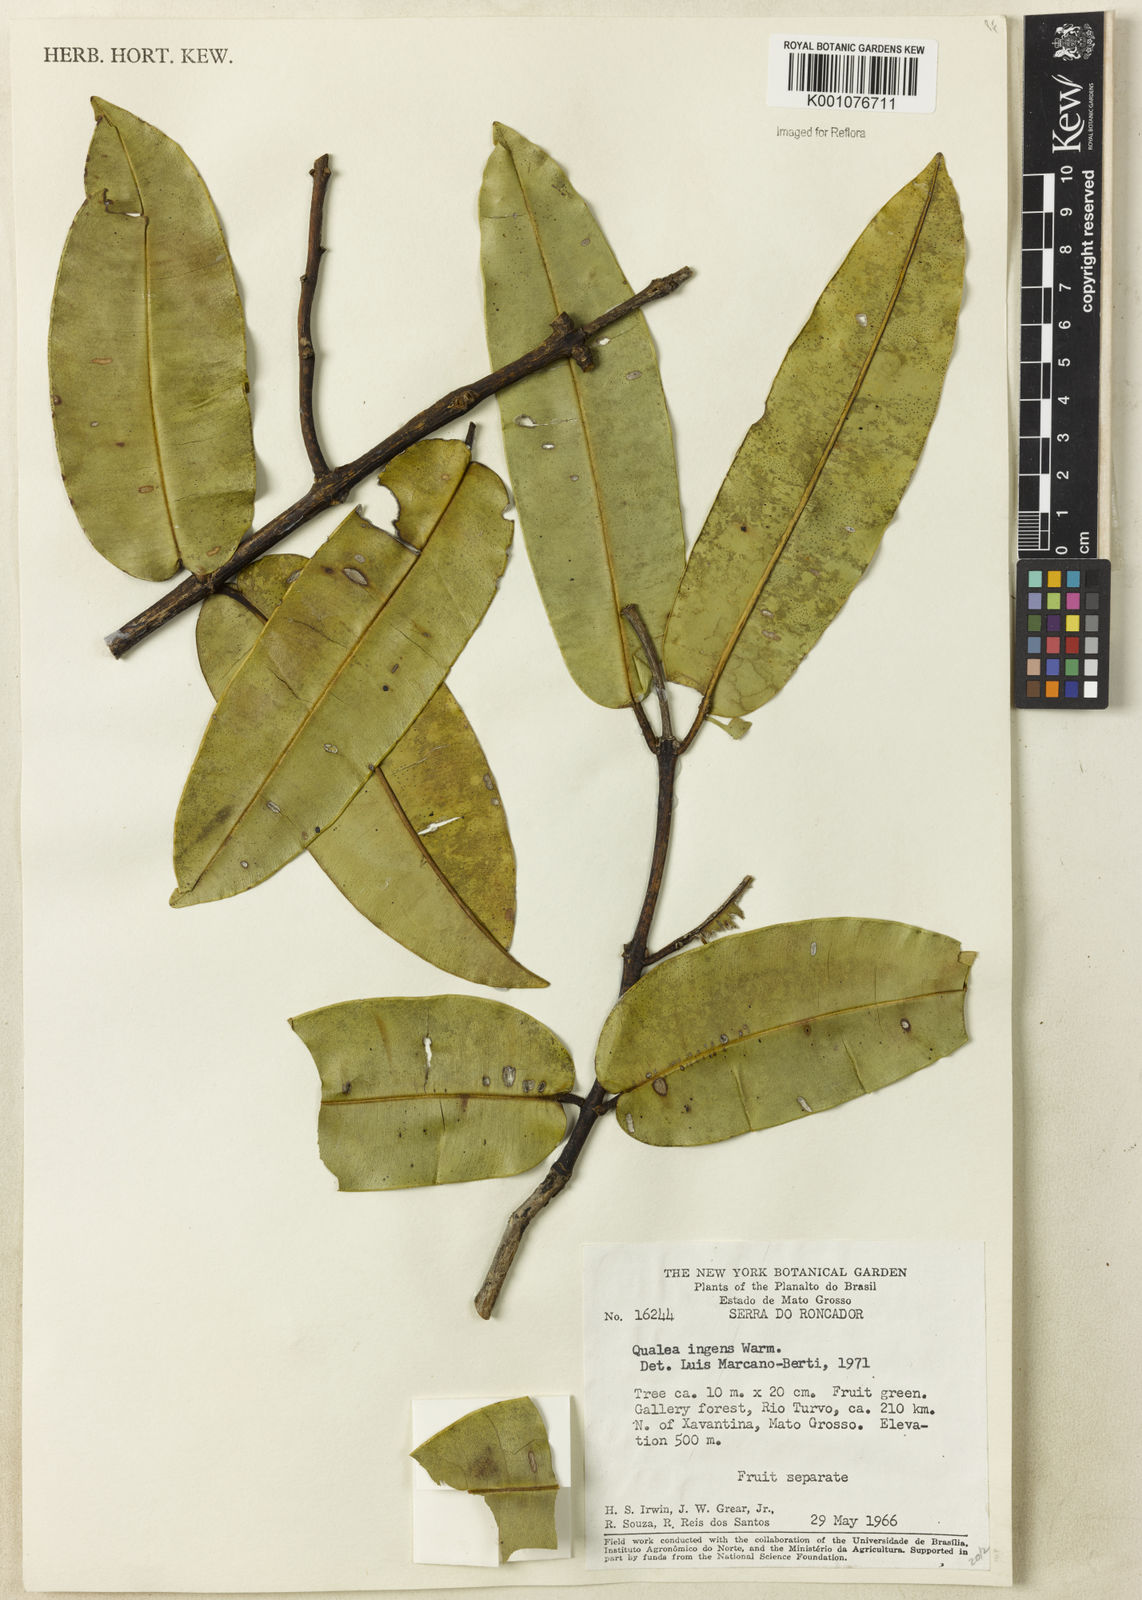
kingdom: Plantae
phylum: Tracheophyta
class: Magnoliopsida
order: Myrtales
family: Vochysiaceae
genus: Qualea
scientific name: Qualea ingens
